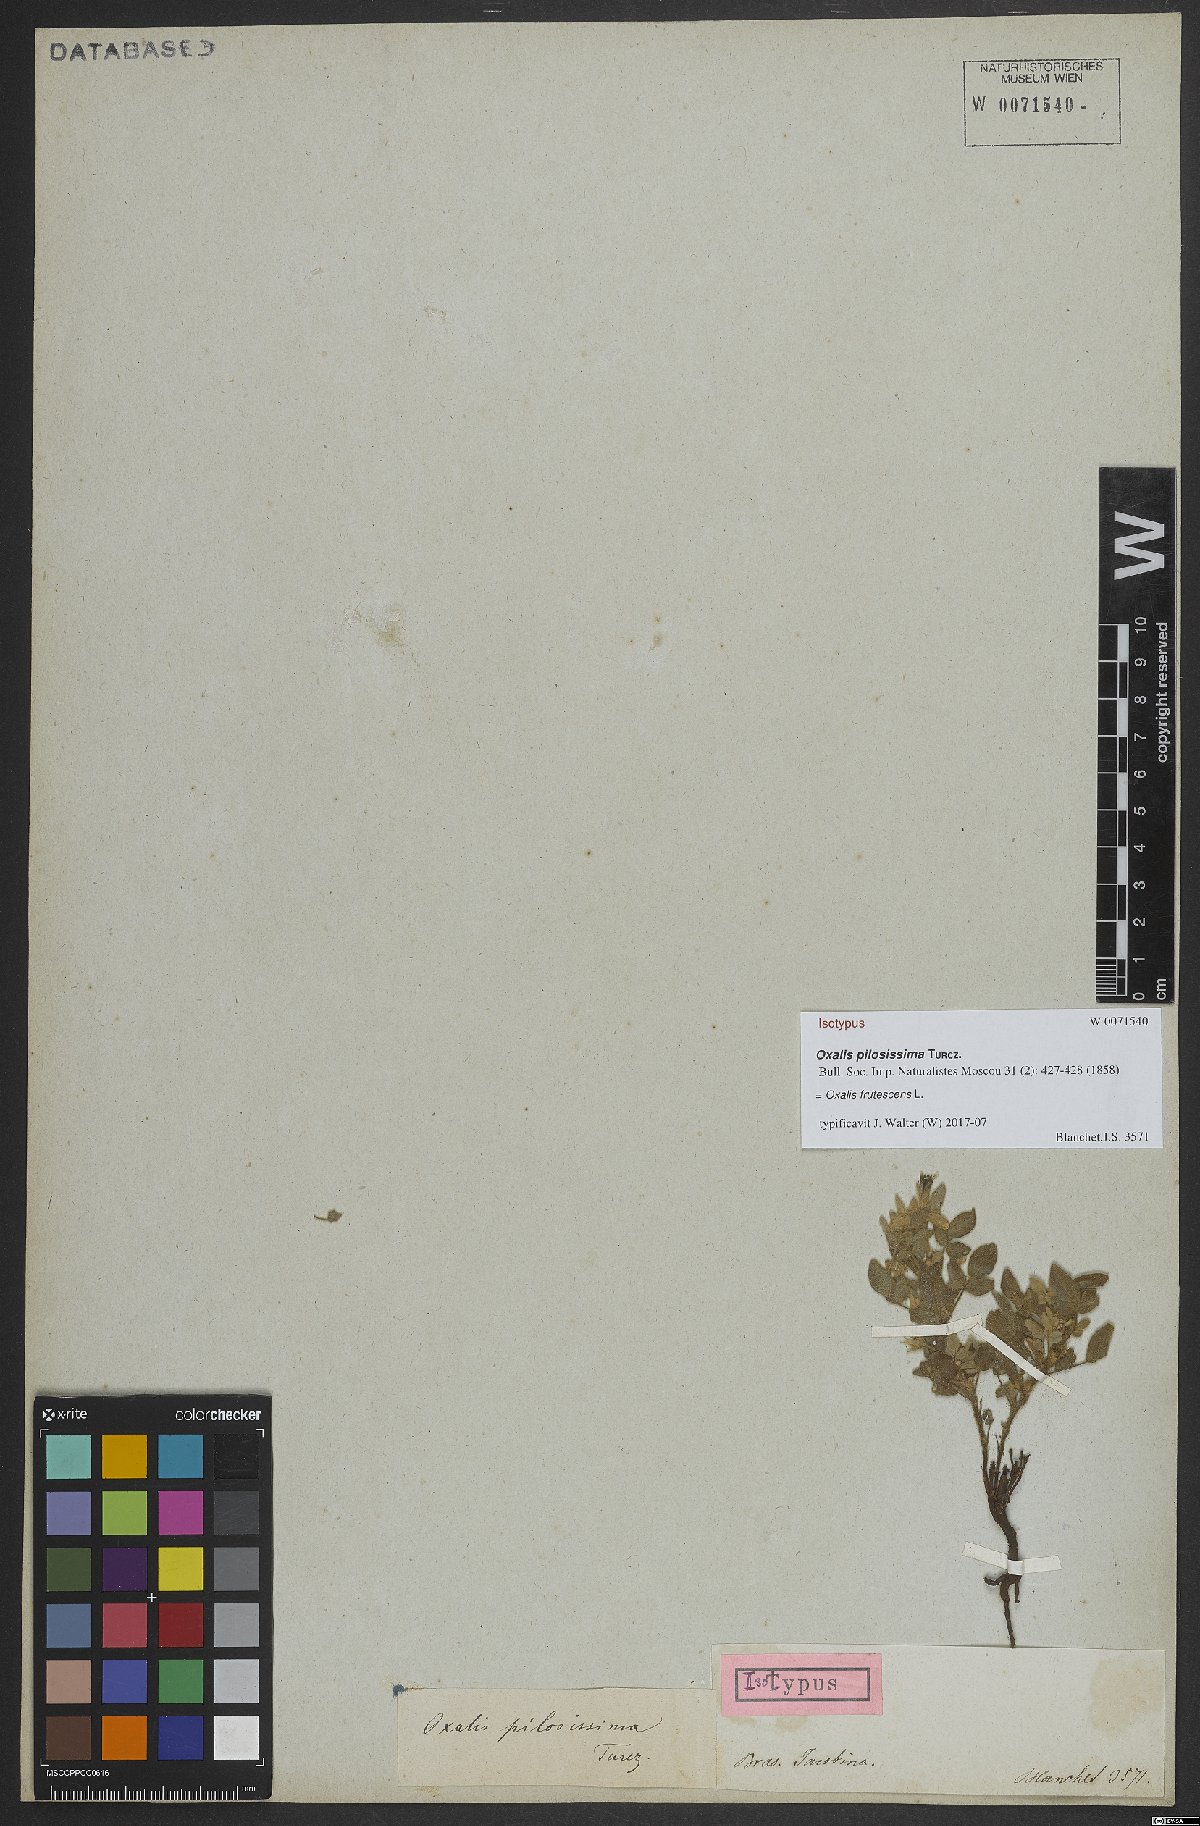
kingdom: Plantae
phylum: Tracheophyta
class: Magnoliopsida
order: Oxalidales
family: Oxalidaceae
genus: Oxalis
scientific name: Oxalis frutescens
